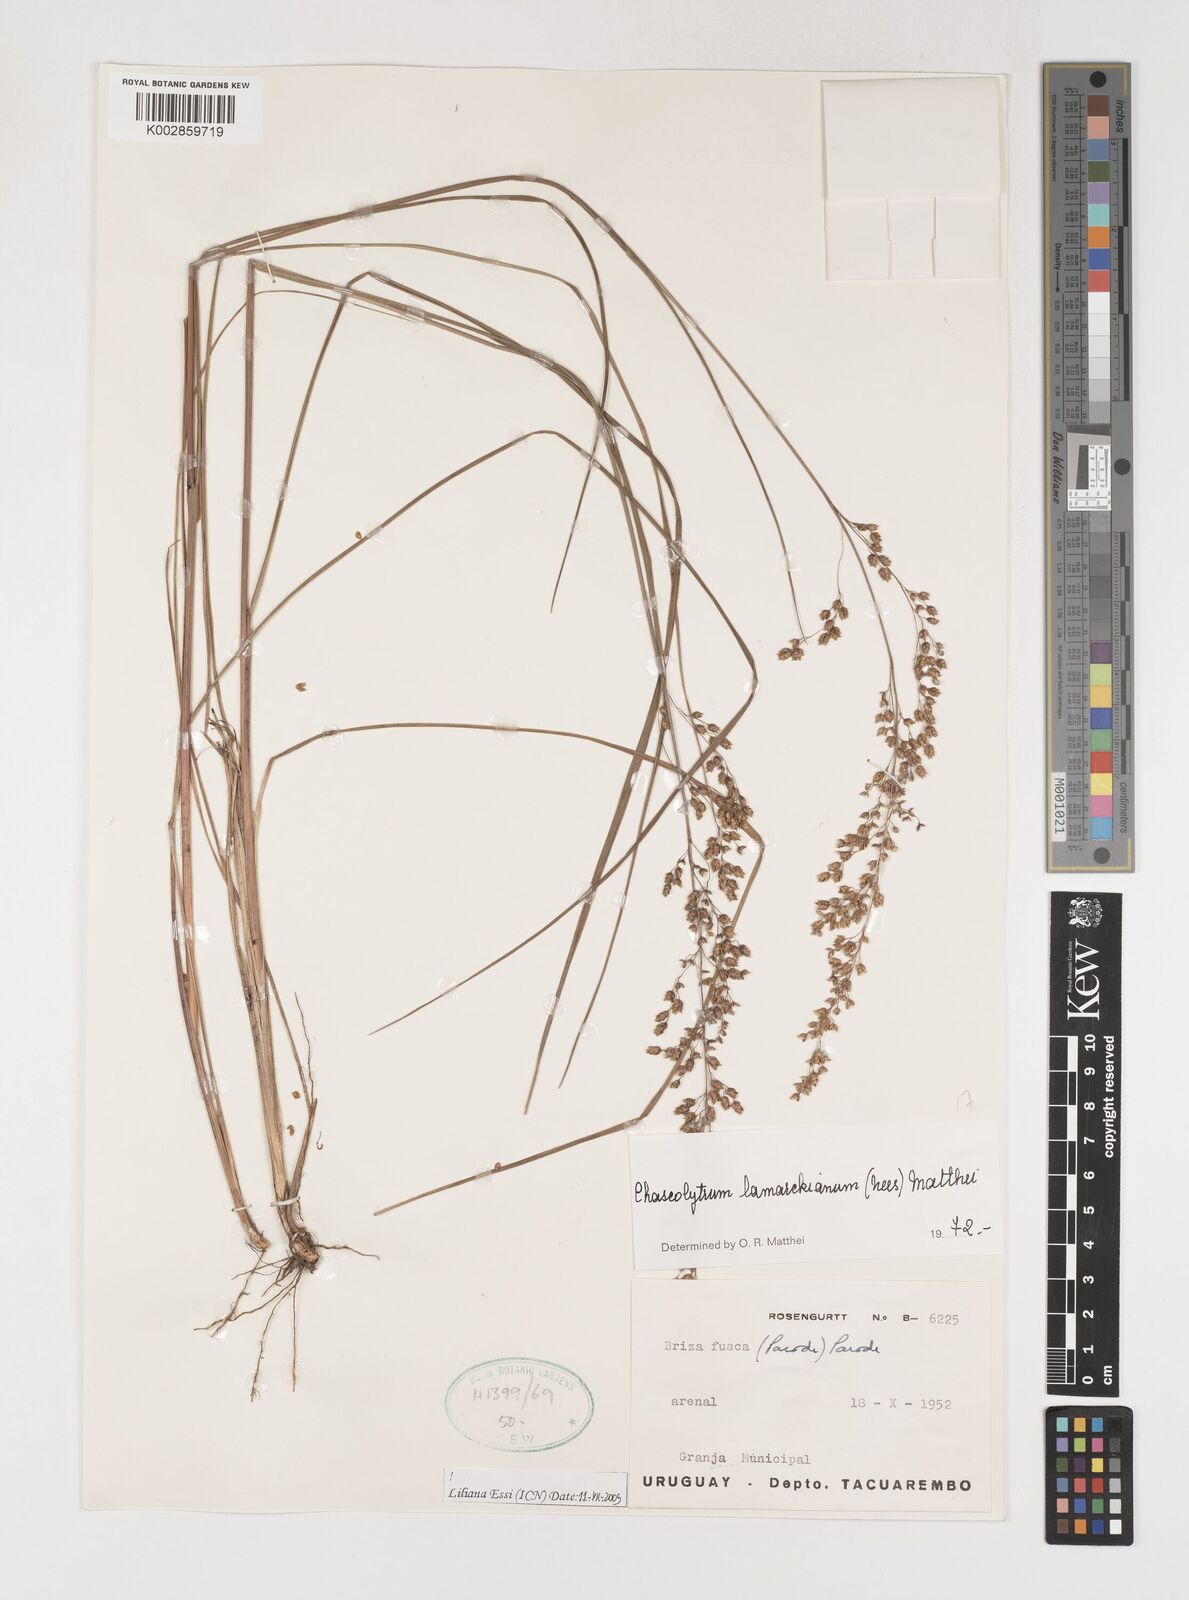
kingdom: Plantae
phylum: Tracheophyta
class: Liliopsida
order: Poales
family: Poaceae
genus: Chascolytrum
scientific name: Chascolytrum lamarckianum
